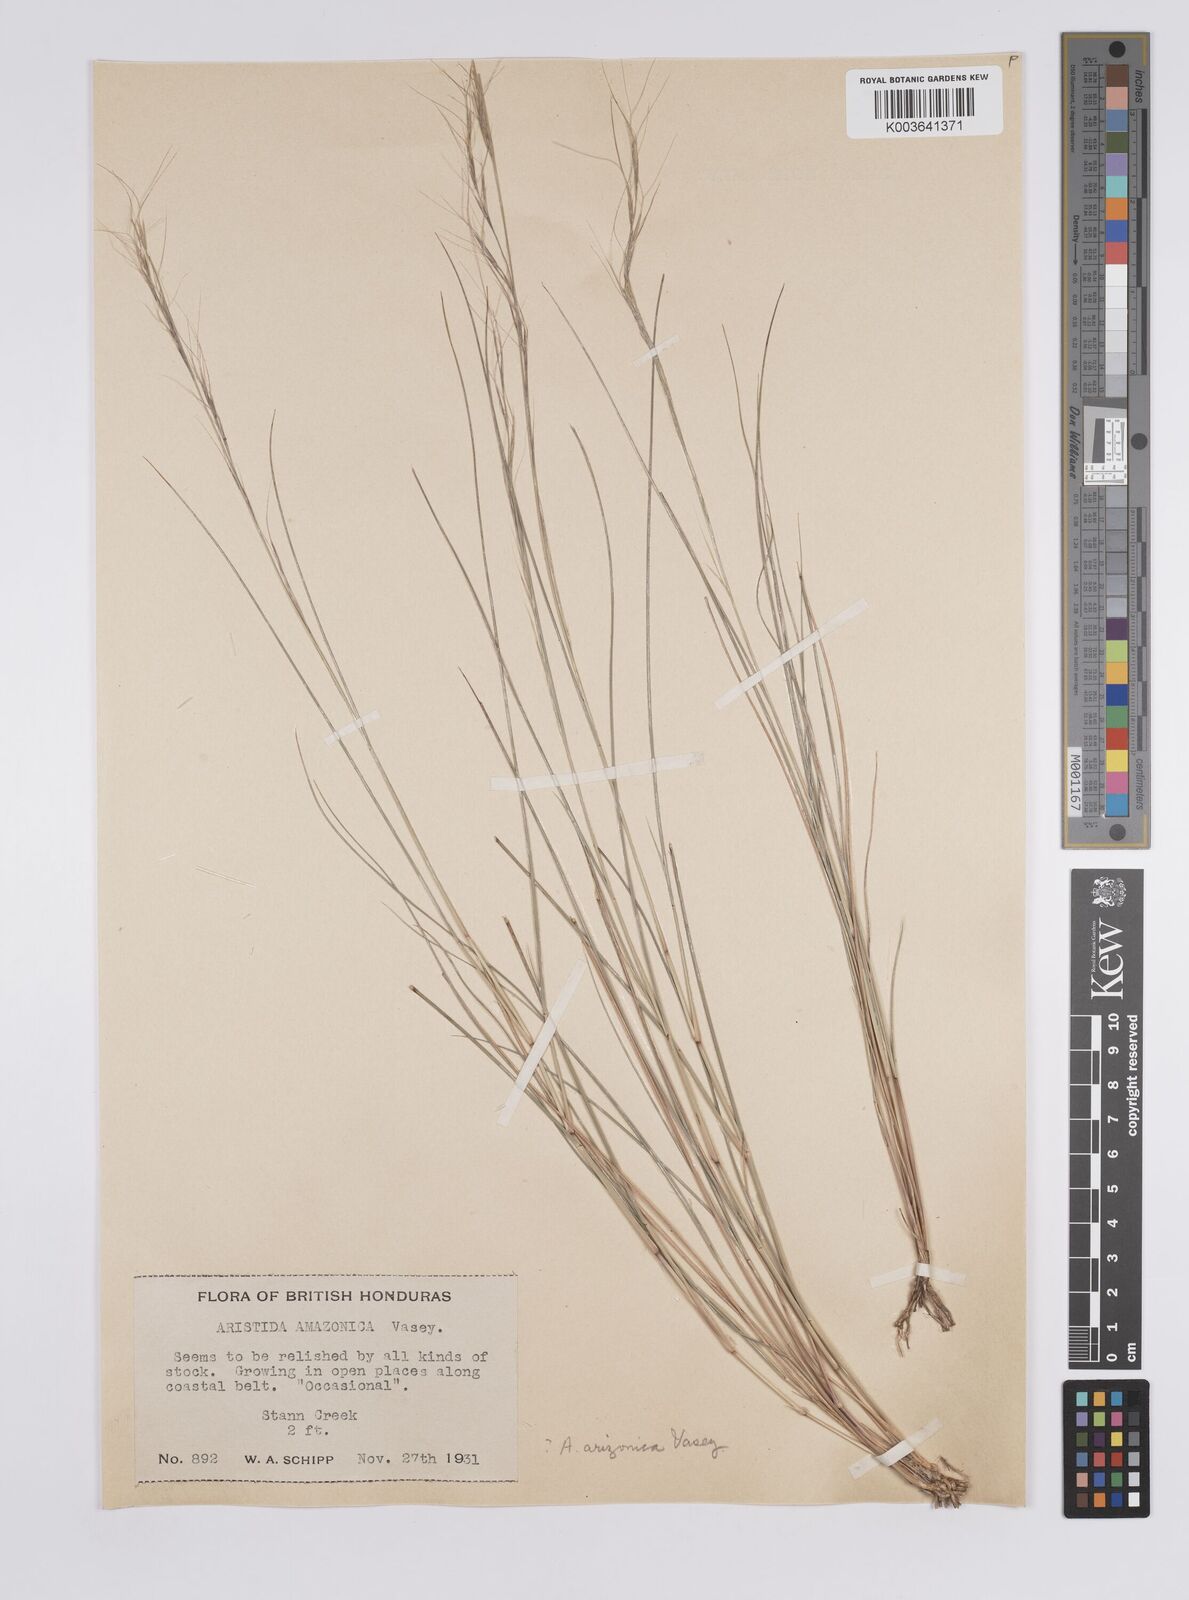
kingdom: Plantae
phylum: Tracheophyta
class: Liliopsida
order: Poales
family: Poaceae
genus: Aristida
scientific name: Aristida arizonica
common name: Arizona threeawn
